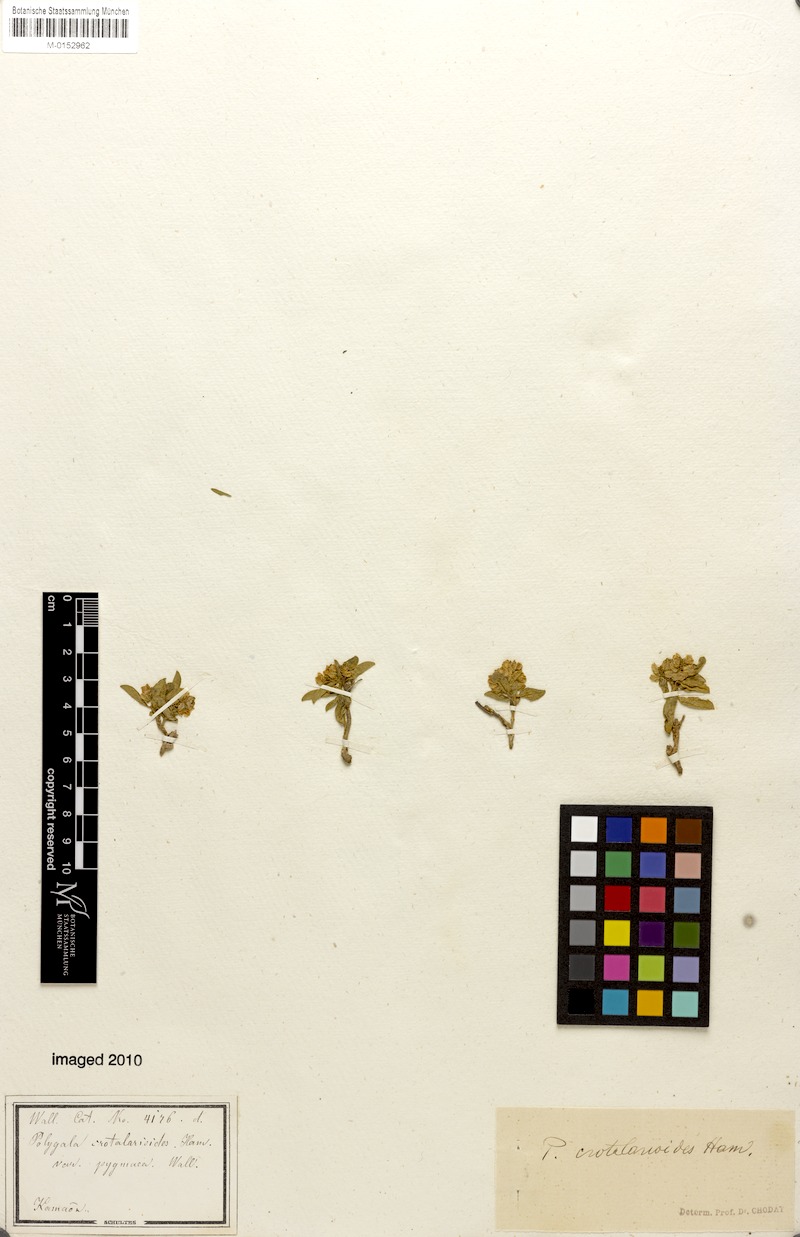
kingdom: Plantae
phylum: Tracheophyta
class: Magnoliopsida
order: Fabales
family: Polygalaceae
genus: Polygala
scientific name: Polygala crotalarioides
